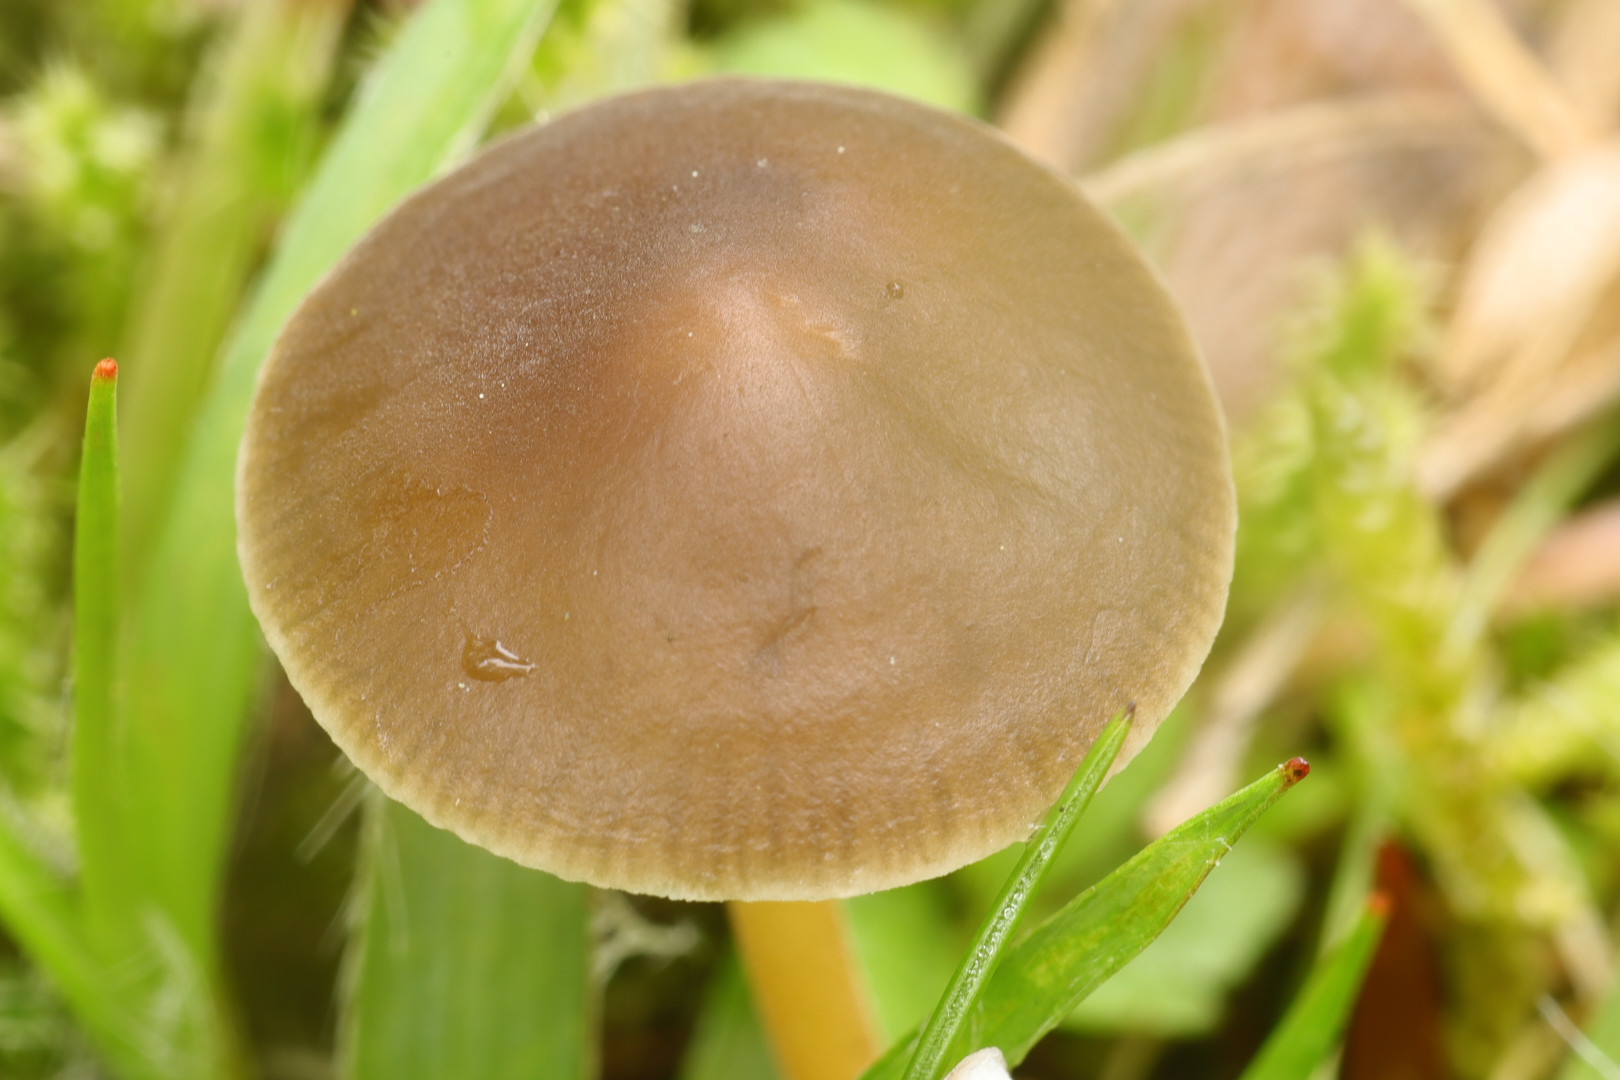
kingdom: Fungi
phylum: Basidiomycota
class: Agaricomycetes
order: Agaricales
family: Physalacriaceae
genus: Strobilurus
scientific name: Strobilurus tenacellus
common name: sommer-koglehat
